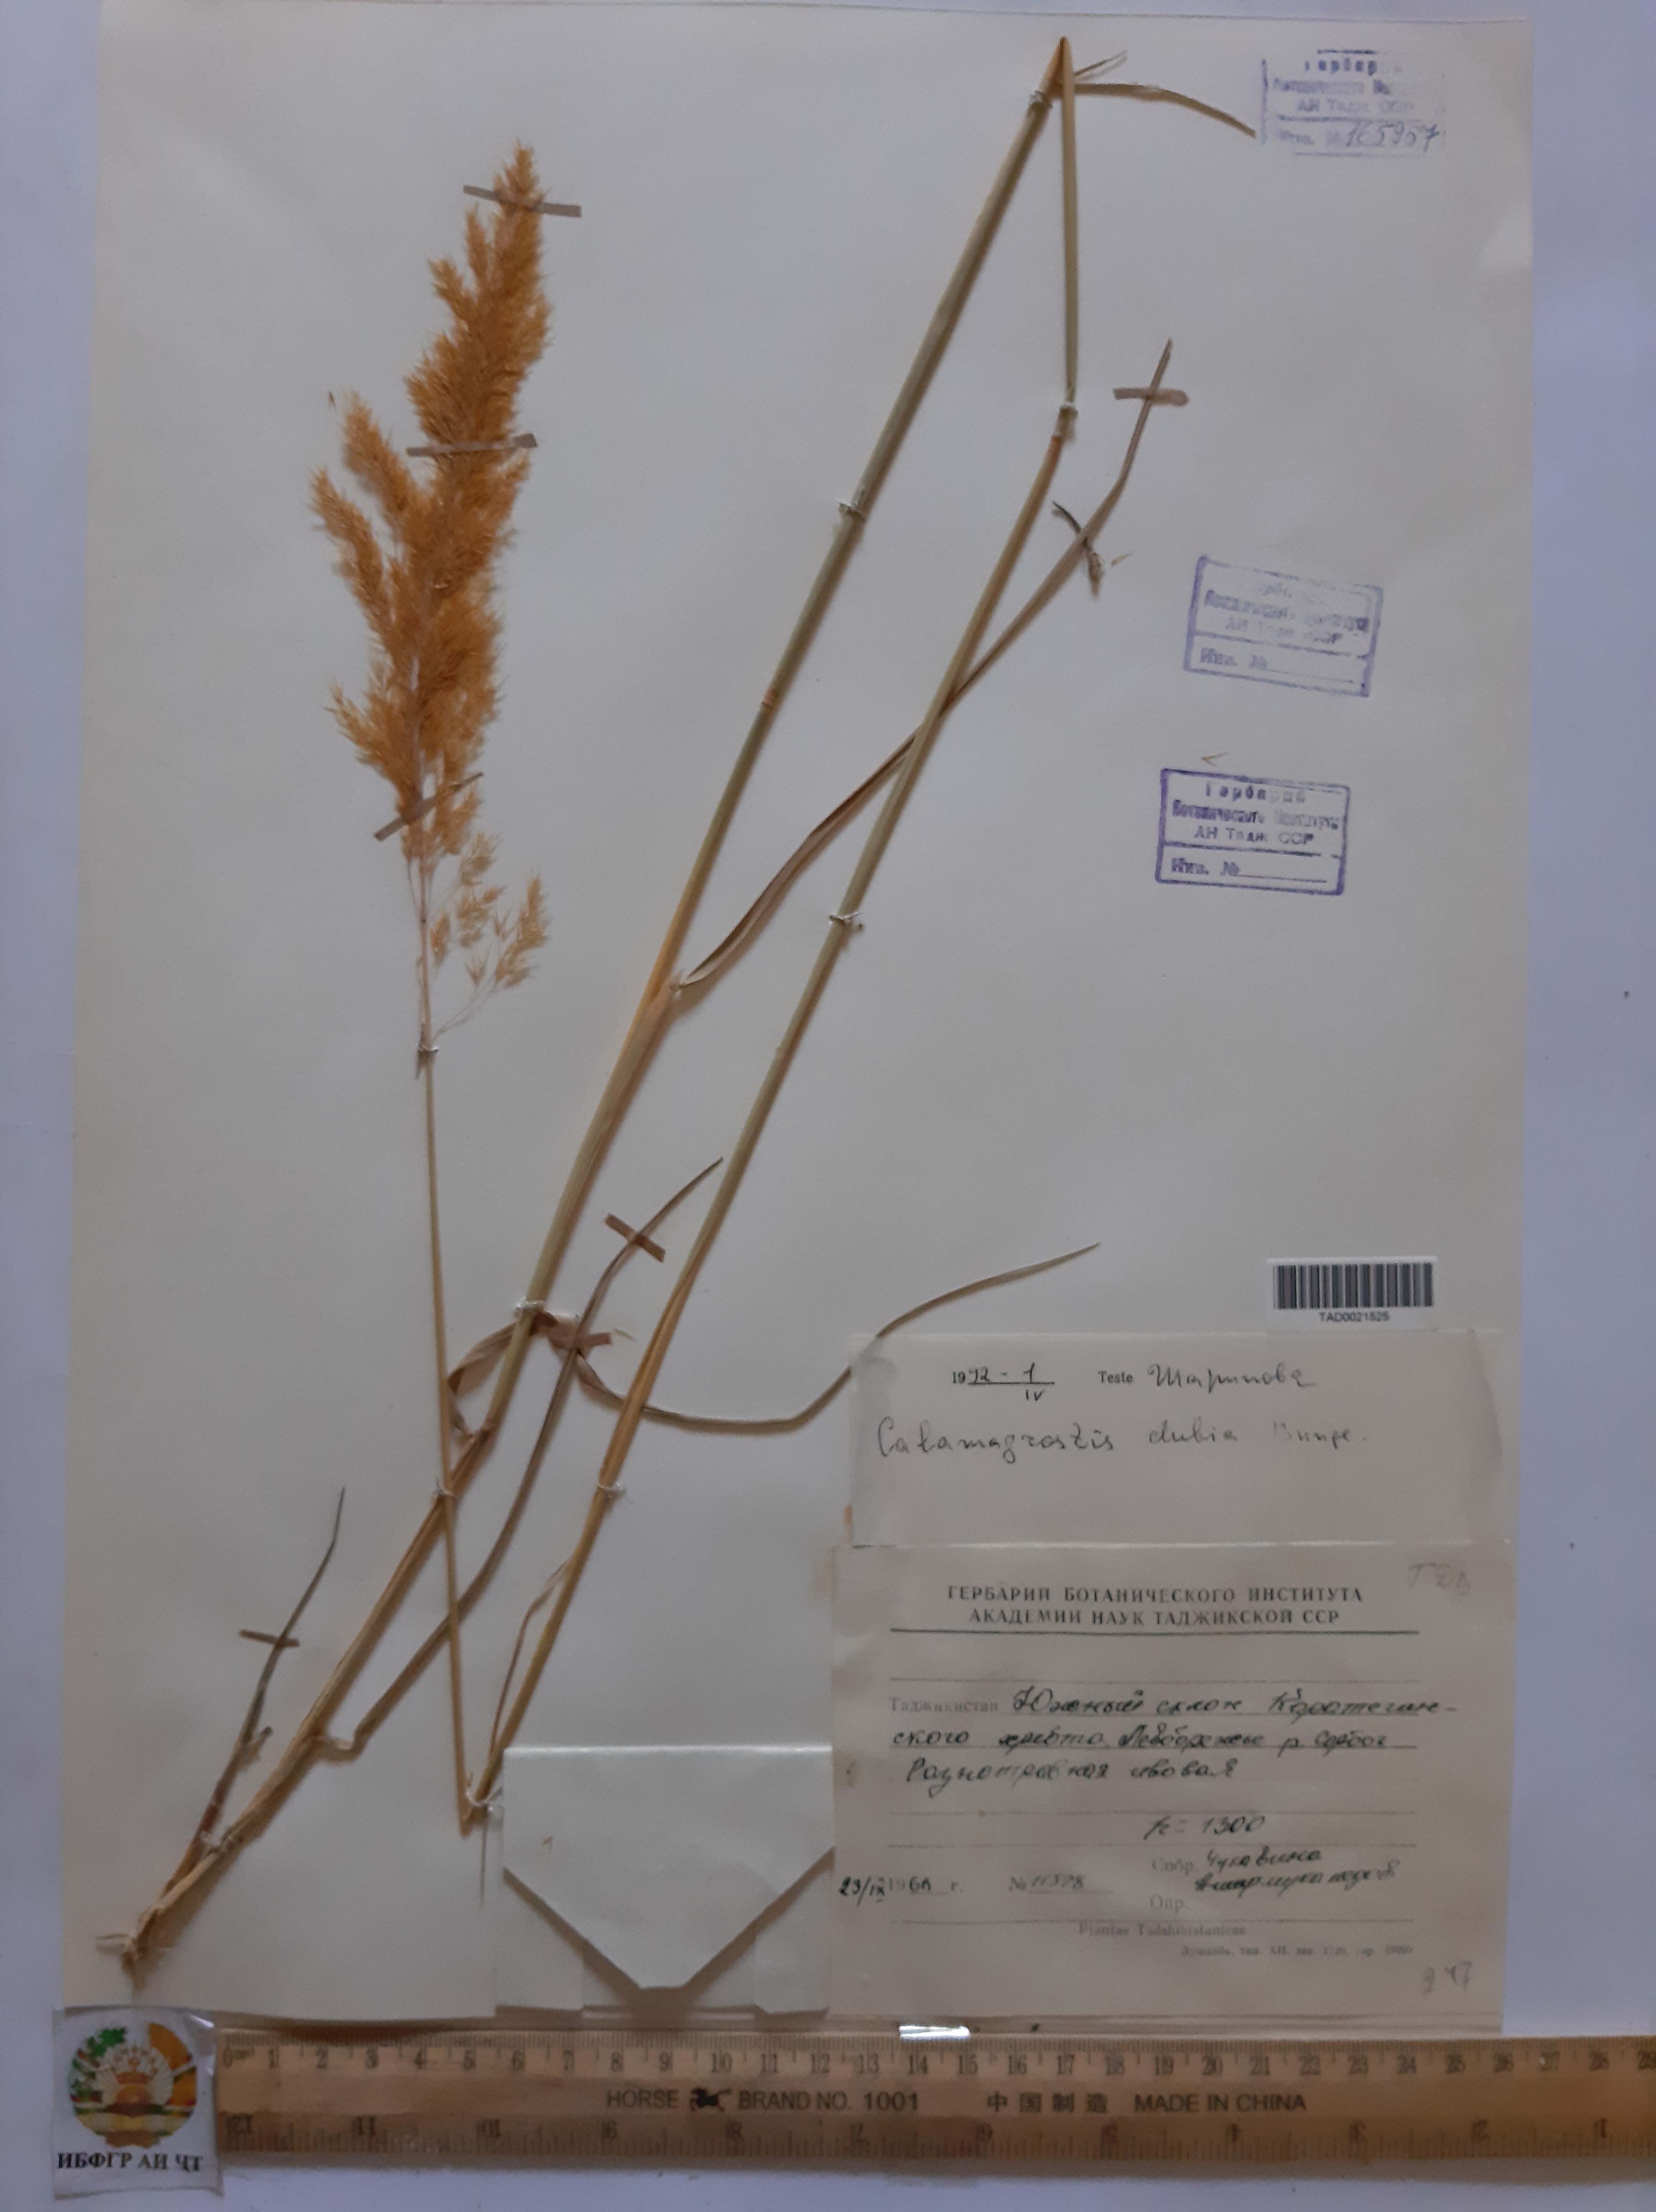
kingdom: Plantae
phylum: Tracheophyta
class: Liliopsida
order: Poales
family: Poaceae
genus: Calamagrostis
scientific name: Calamagrostis pseudophragmites
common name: Coastal small-reed
